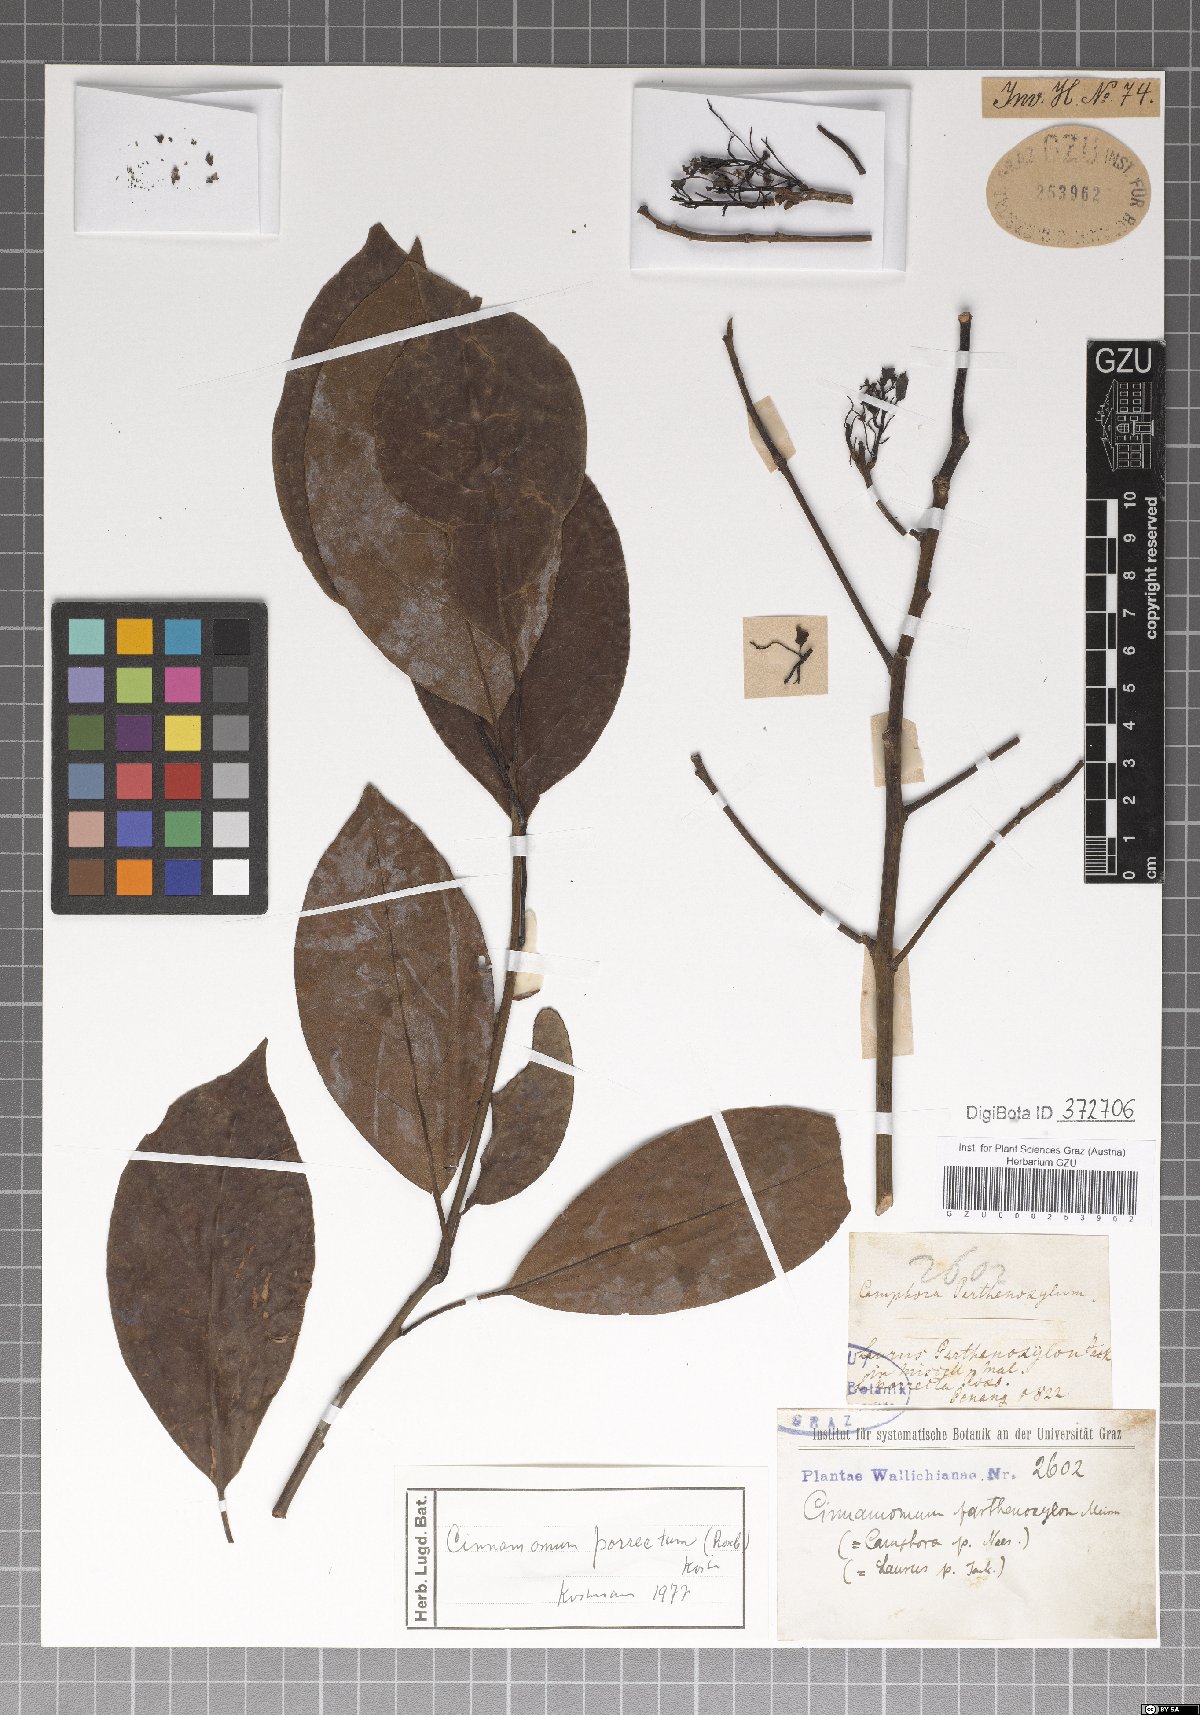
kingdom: Plantae
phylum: Tracheophyta
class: Magnoliopsida
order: Laurales
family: Lauraceae
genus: Cinnamomum
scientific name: Cinnamomum parthenoxylon
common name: Martaban camphor wood
